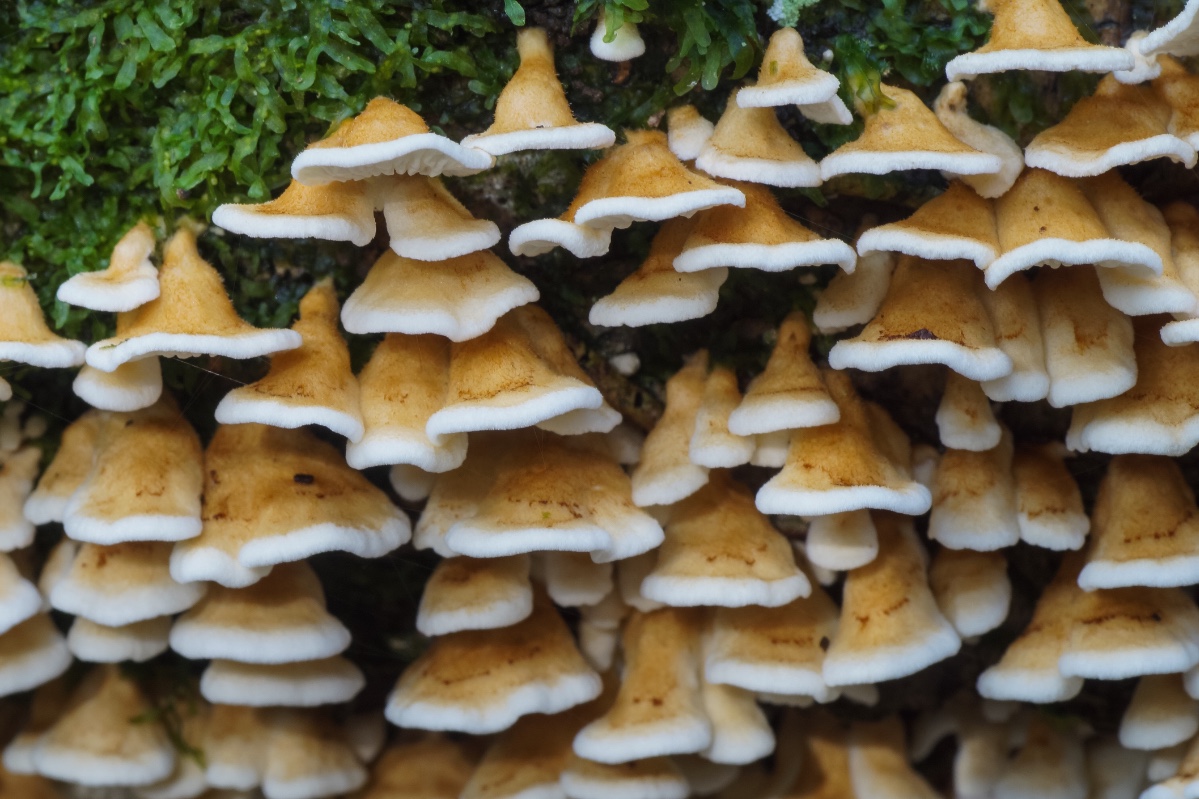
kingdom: Fungi
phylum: Basidiomycota
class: Agaricomycetes
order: Amylocorticiales
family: Amylocorticiaceae
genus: Plicaturopsis
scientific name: Plicaturopsis crispa
